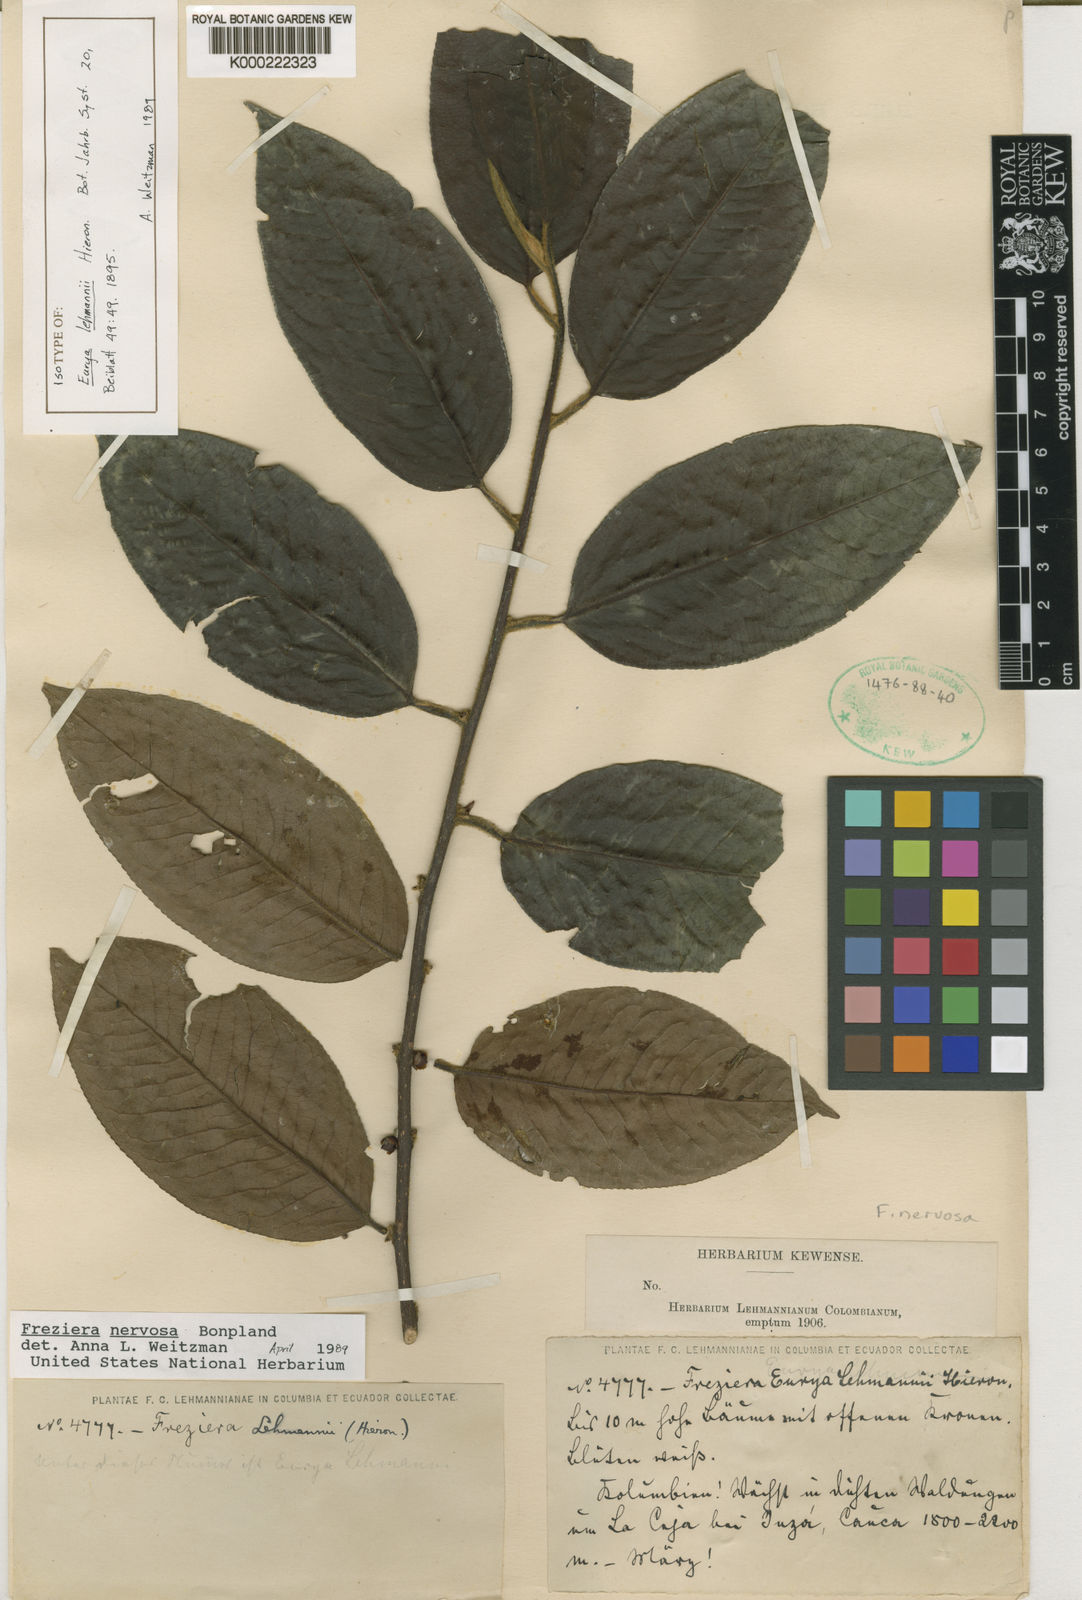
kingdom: Plantae
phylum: Tracheophyta
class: Magnoliopsida
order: Ericales
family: Pentaphylacaceae
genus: Freziera
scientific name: Freziera nervosa
